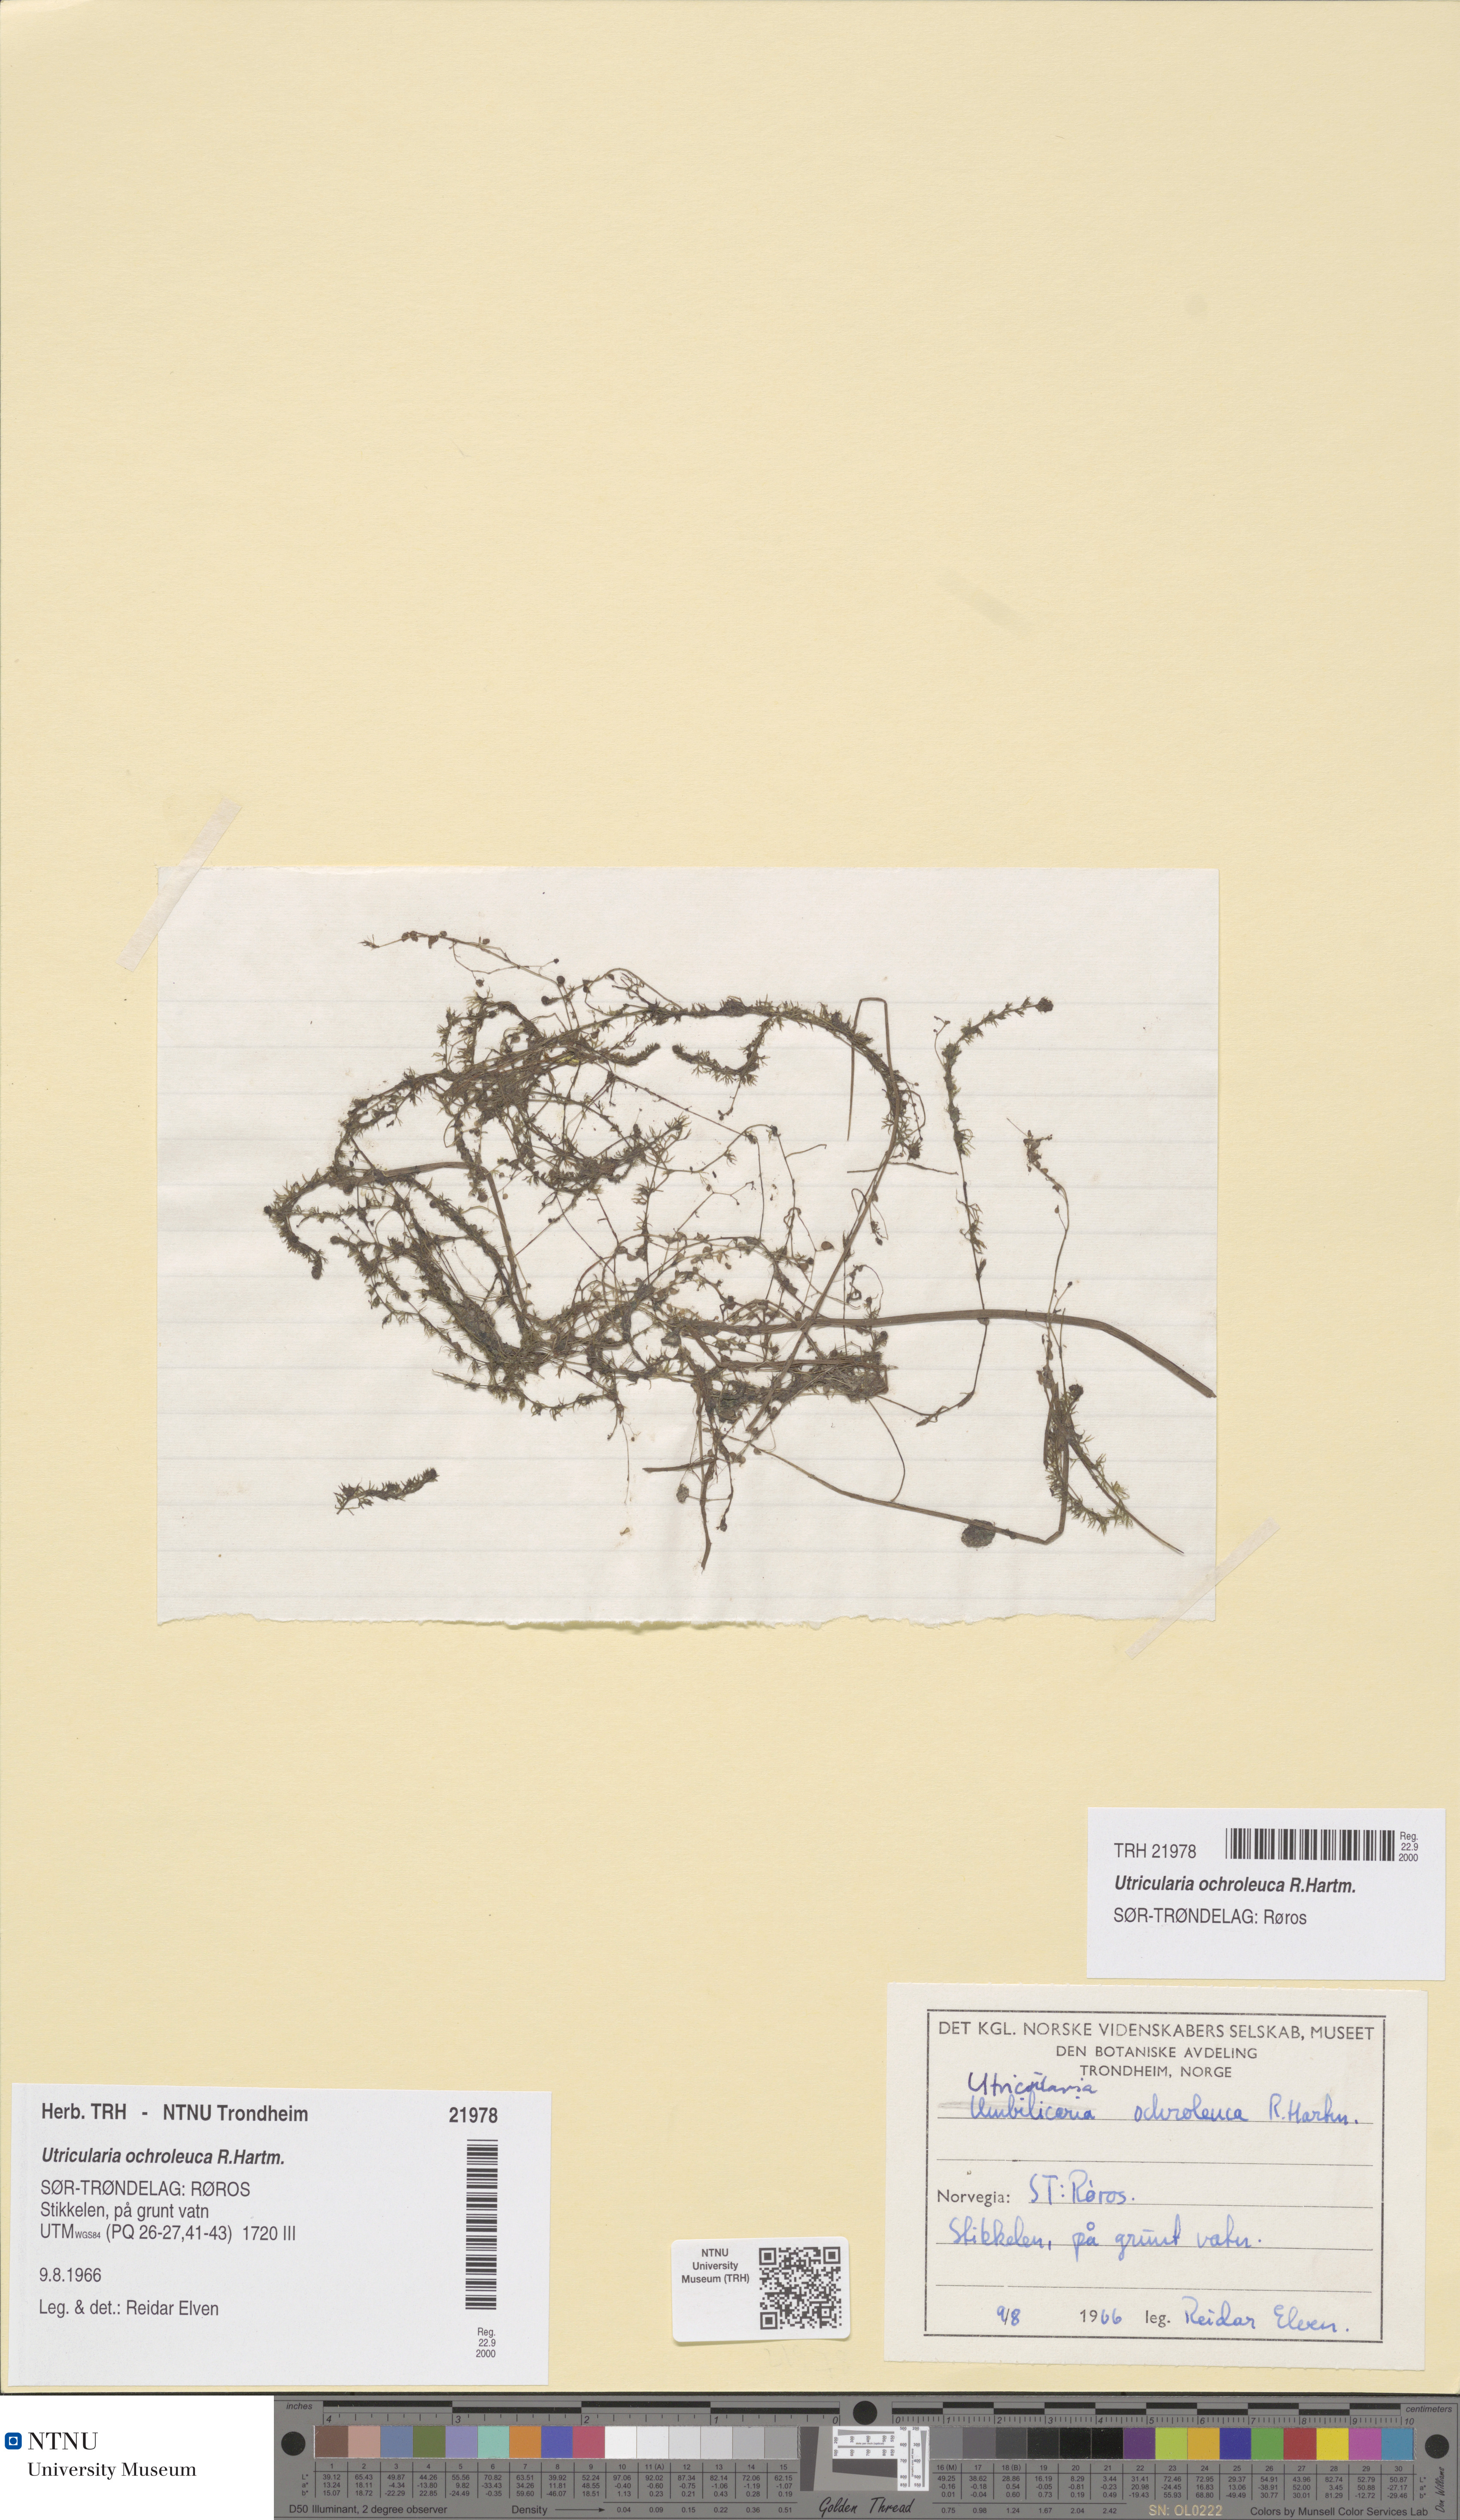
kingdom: Plantae
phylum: Tracheophyta
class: Magnoliopsida
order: Lamiales
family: Lentibulariaceae
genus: Utricularia
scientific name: Utricularia ochroleuca
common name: Pale bladderwort
